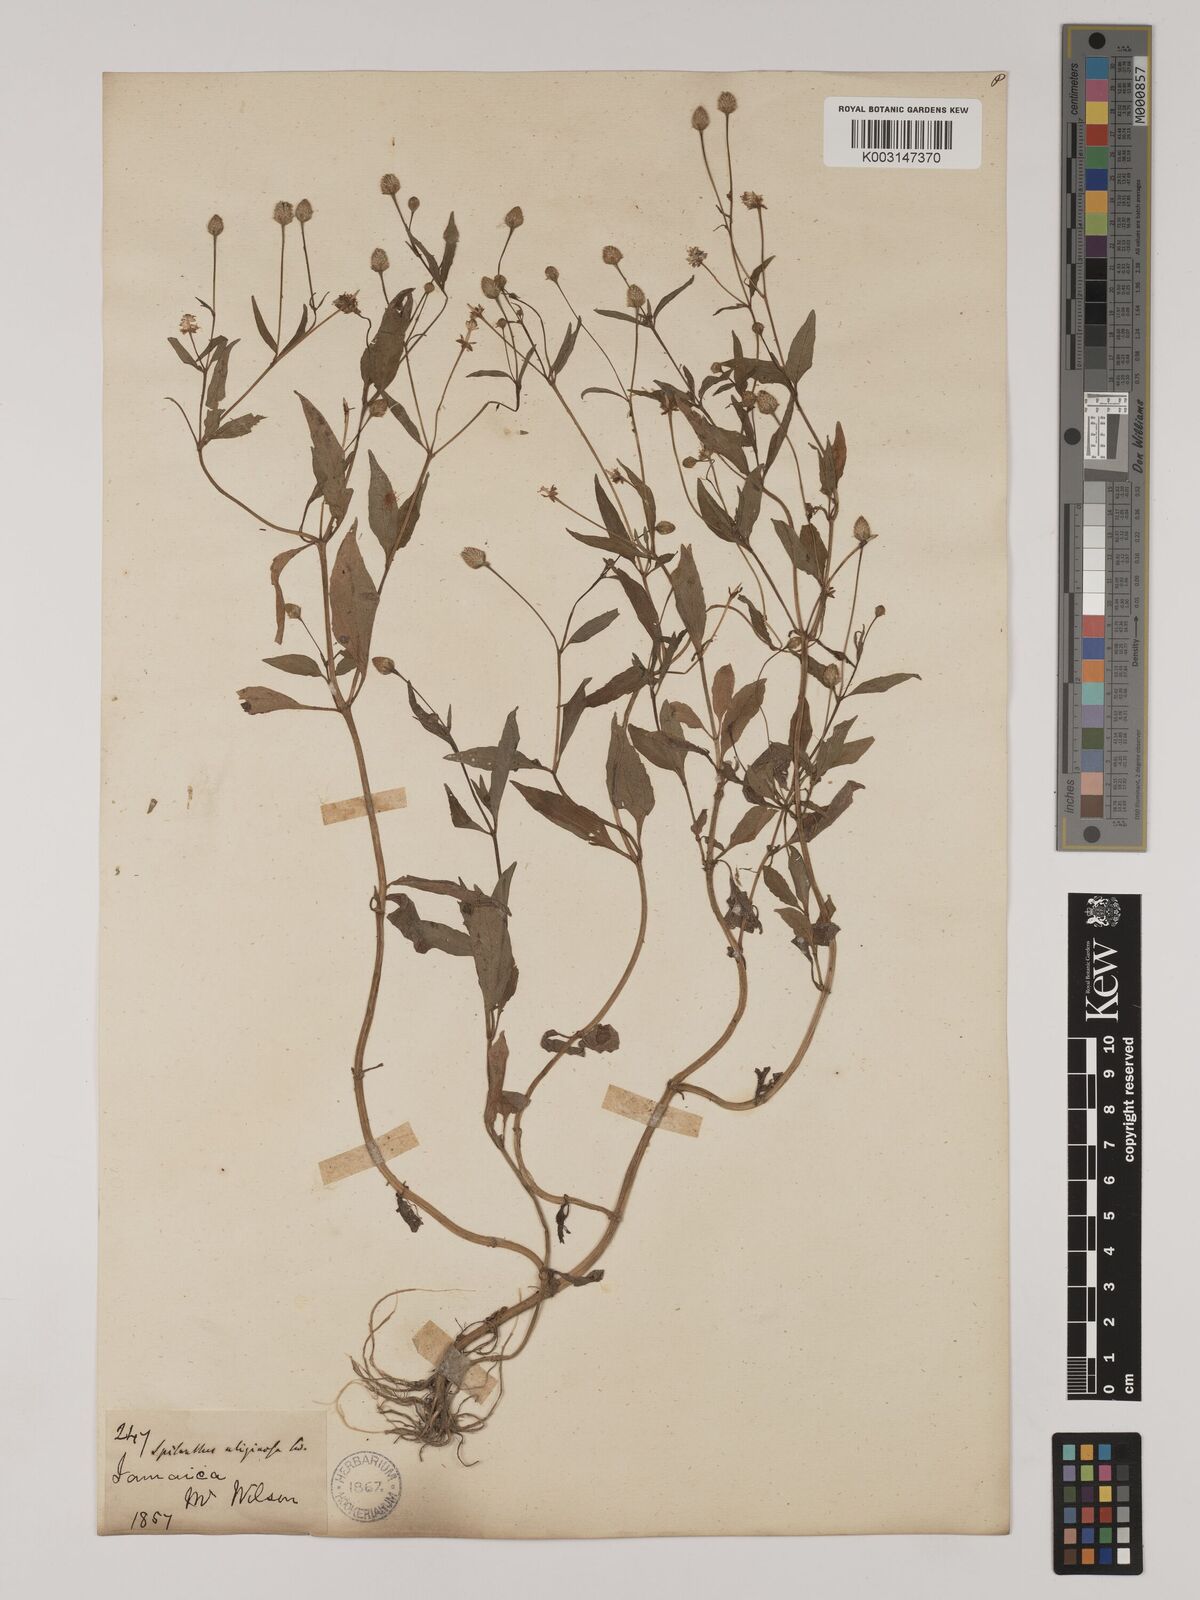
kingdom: Plantae
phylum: Tracheophyta
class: Magnoliopsida
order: Asterales
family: Asteraceae
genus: Acmella
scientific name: Acmella uliginosa
